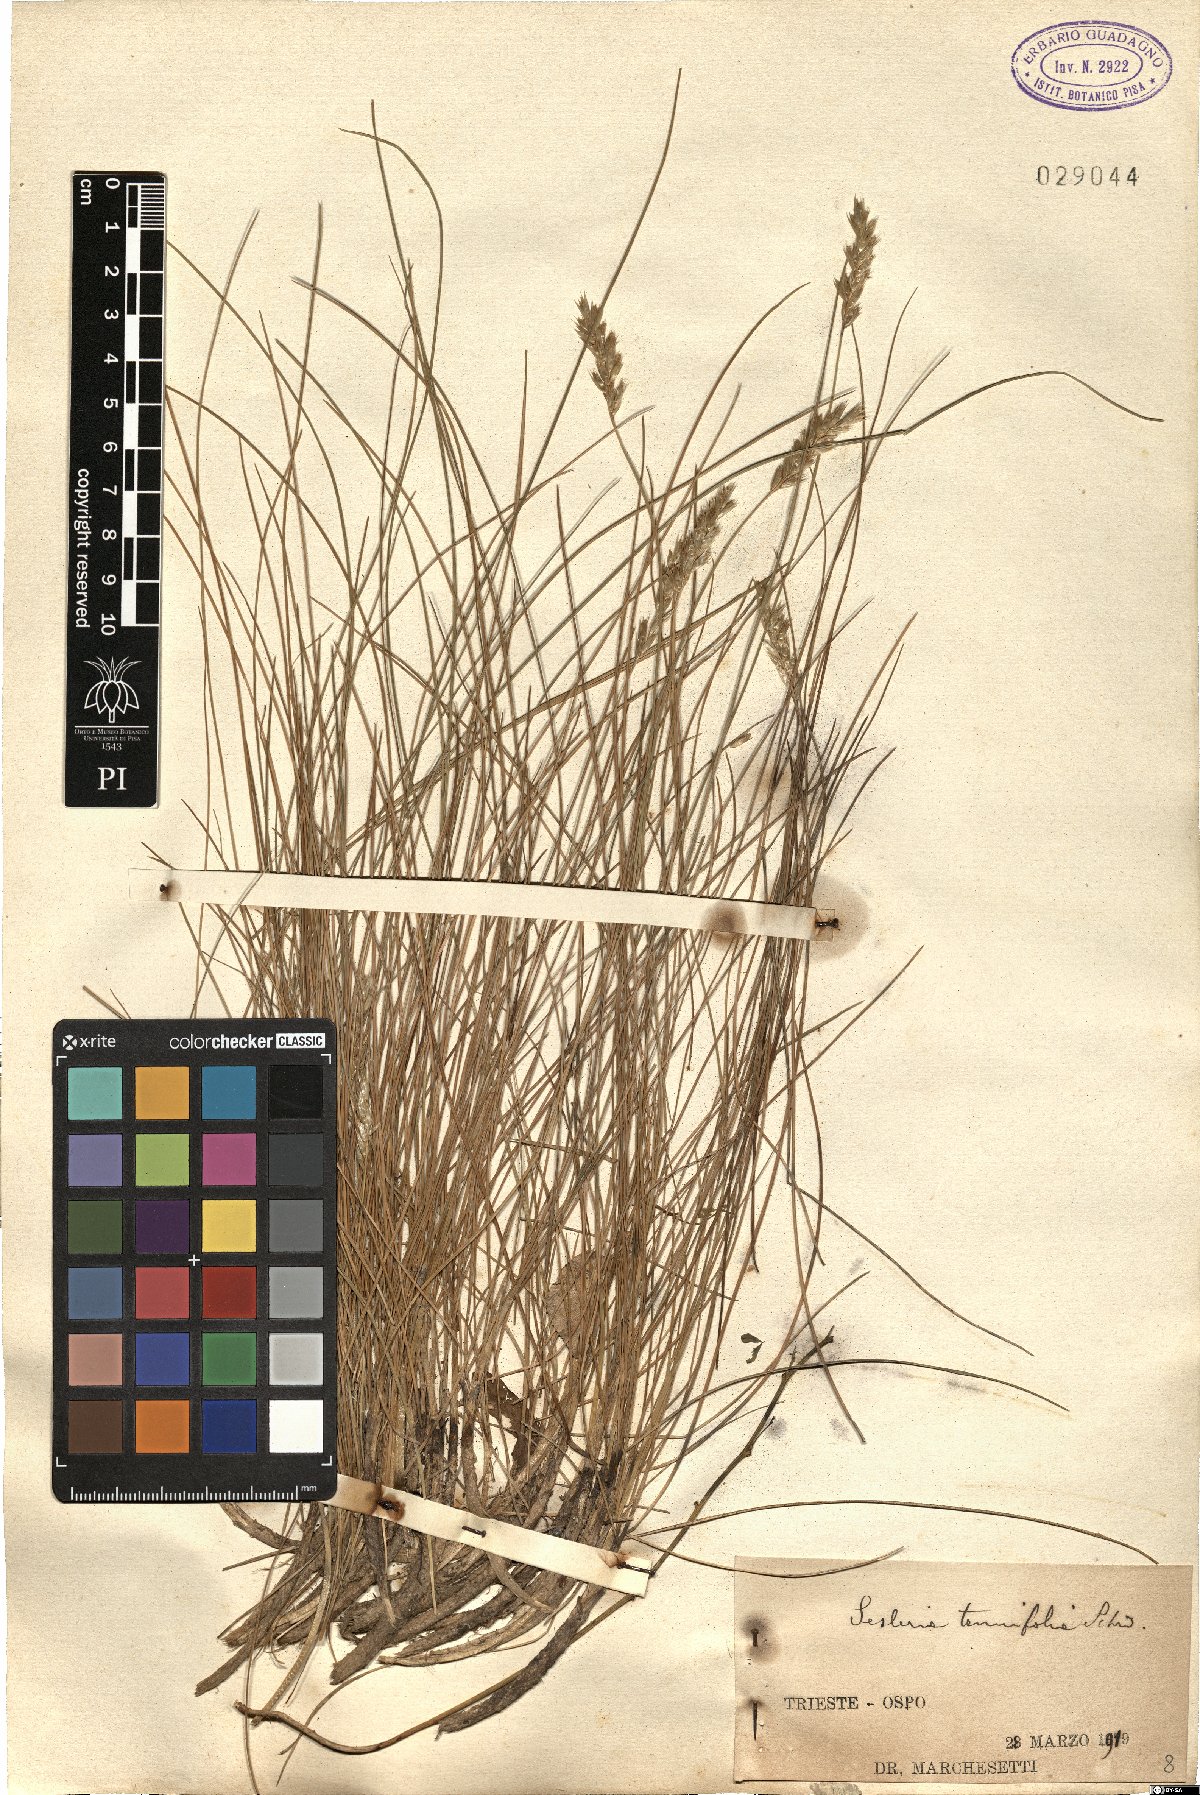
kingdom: Plantae
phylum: Tracheophyta
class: Liliopsida
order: Poales
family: Poaceae
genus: Sesleria
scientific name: Sesleria juncifolia
